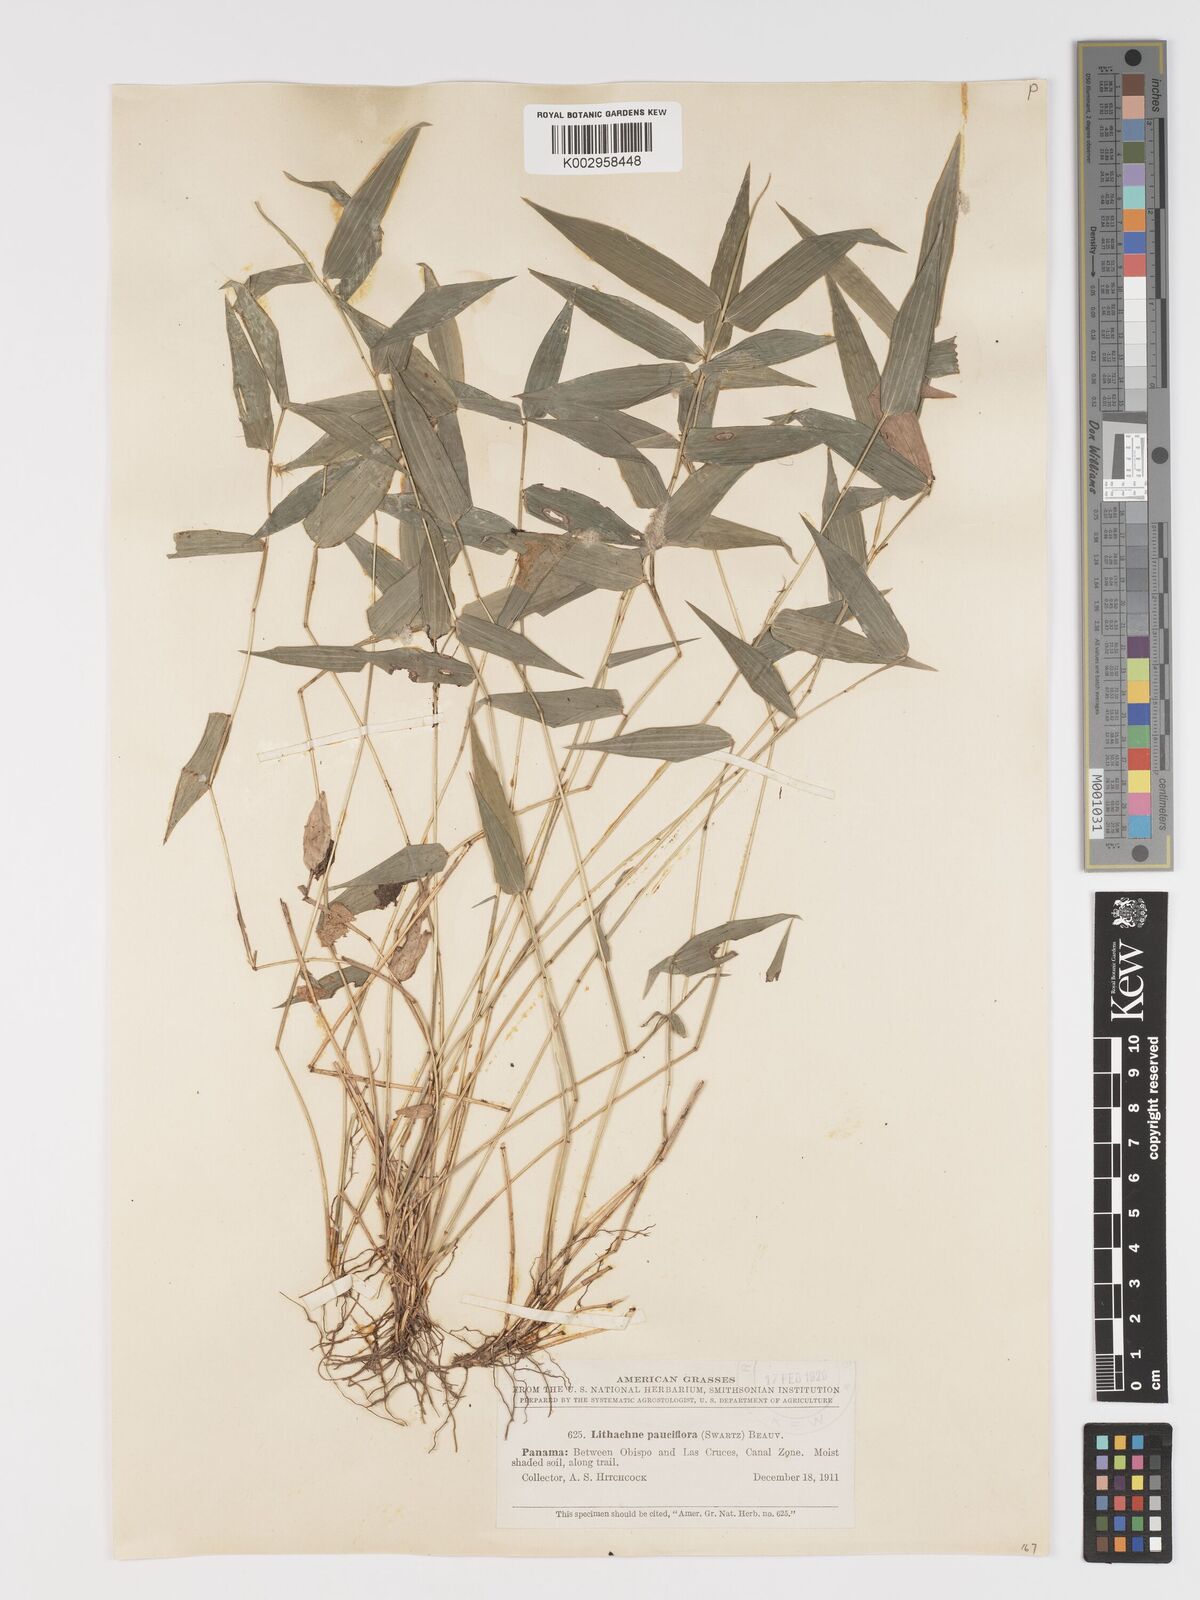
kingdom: Plantae
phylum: Tracheophyta
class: Liliopsida
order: Poales
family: Poaceae
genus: Lithachne
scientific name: Lithachne pauciflora
